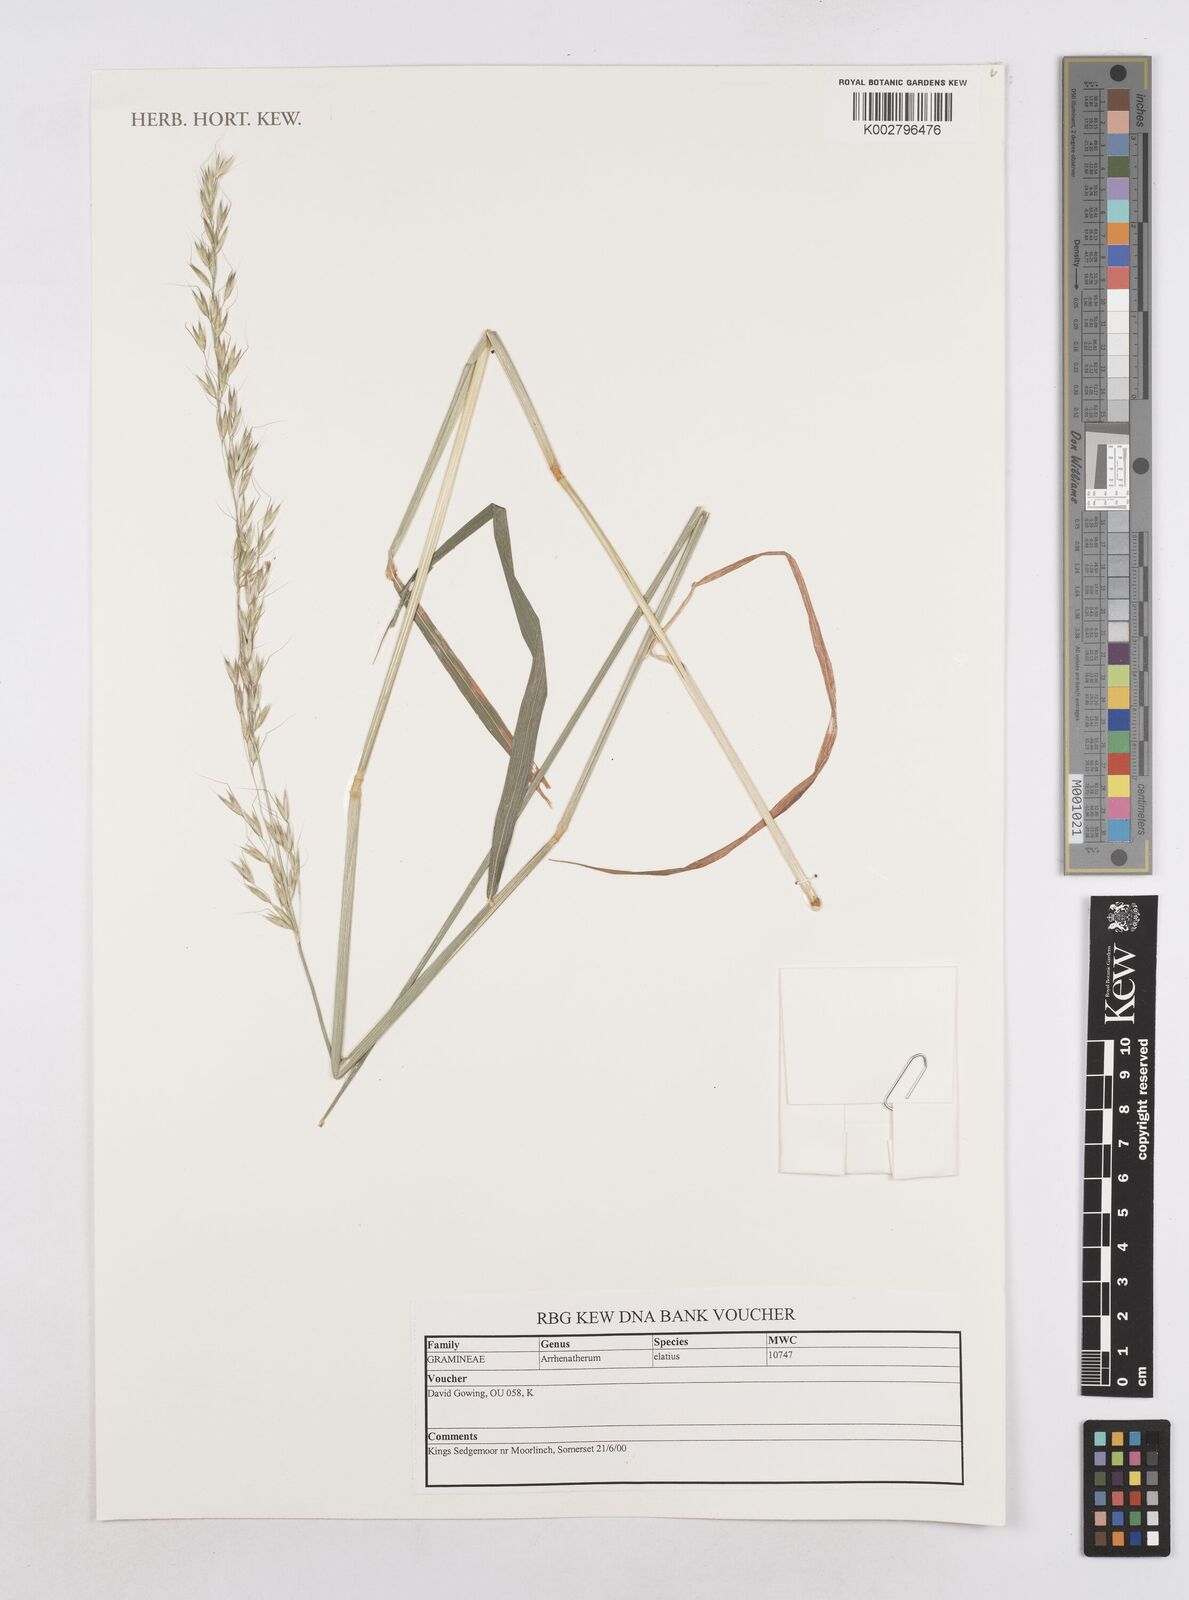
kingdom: Plantae
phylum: Tracheophyta
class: Liliopsida
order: Poales
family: Poaceae
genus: Arrhenatherum
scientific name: Arrhenatherum elatius
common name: Tall oatgrass
